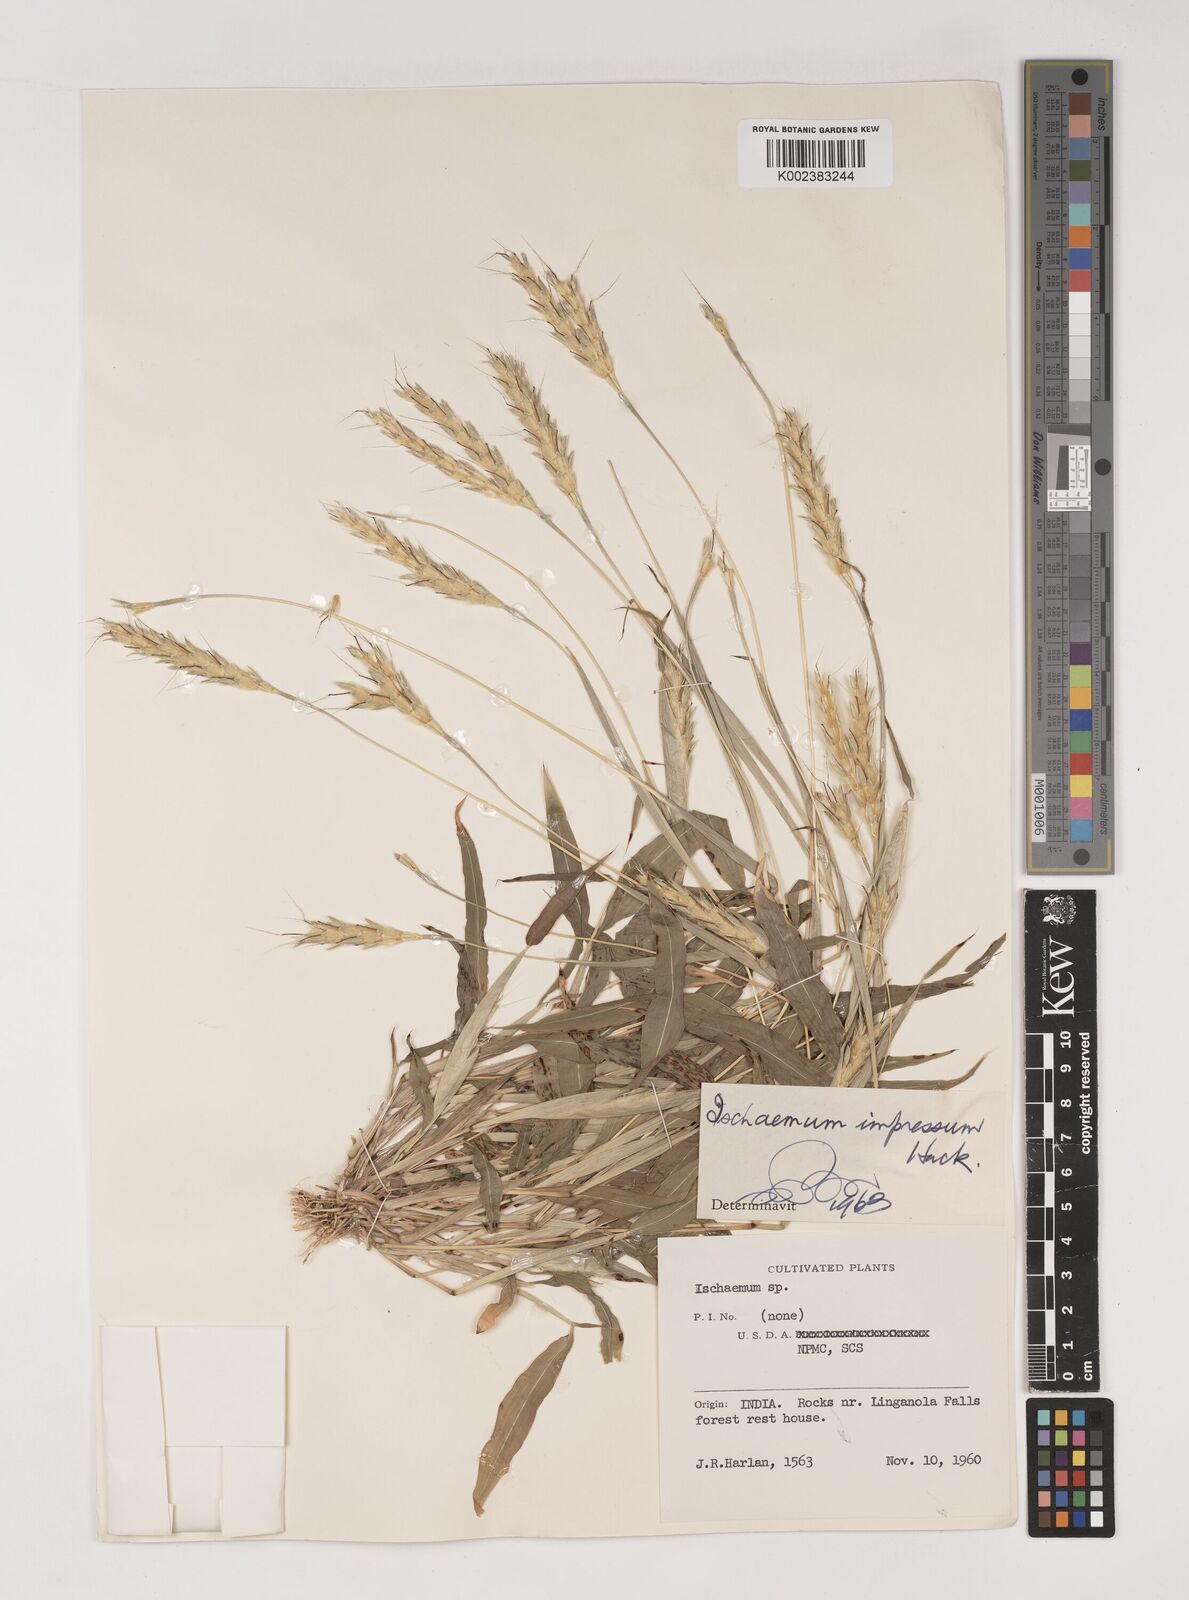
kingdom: Plantae
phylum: Tracheophyta
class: Liliopsida
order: Poales
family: Poaceae
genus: Ischaemum
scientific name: Ischaemum impressum
